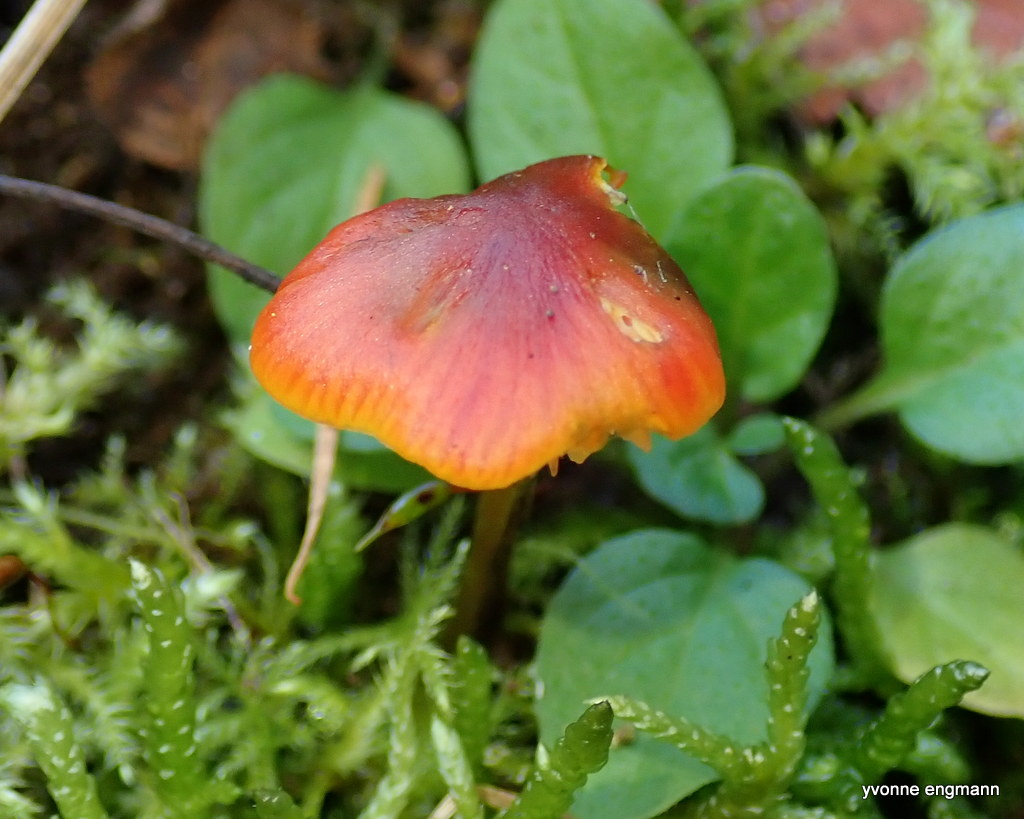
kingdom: Fungi
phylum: Basidiomycota
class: Agaricomycetes
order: Agaricales
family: Hygrophoraceae
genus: Hygrocybe
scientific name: Hygrocybe conica
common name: kegle-vokshat
